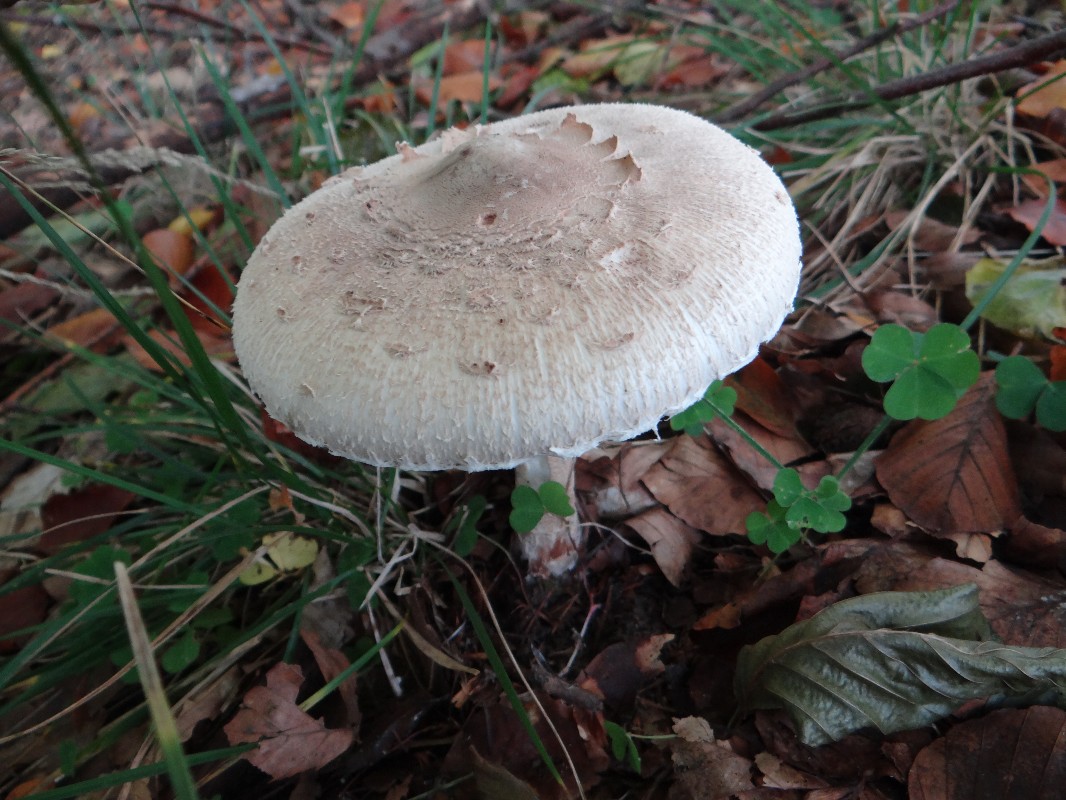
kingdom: Fungi
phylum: Basidiomycota
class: Agaricomycetes
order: Agaricales
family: Agaricaceae
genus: Macrolepiota
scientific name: Macrolepiota mastoidea
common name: puklet kæmpeparasolhat
